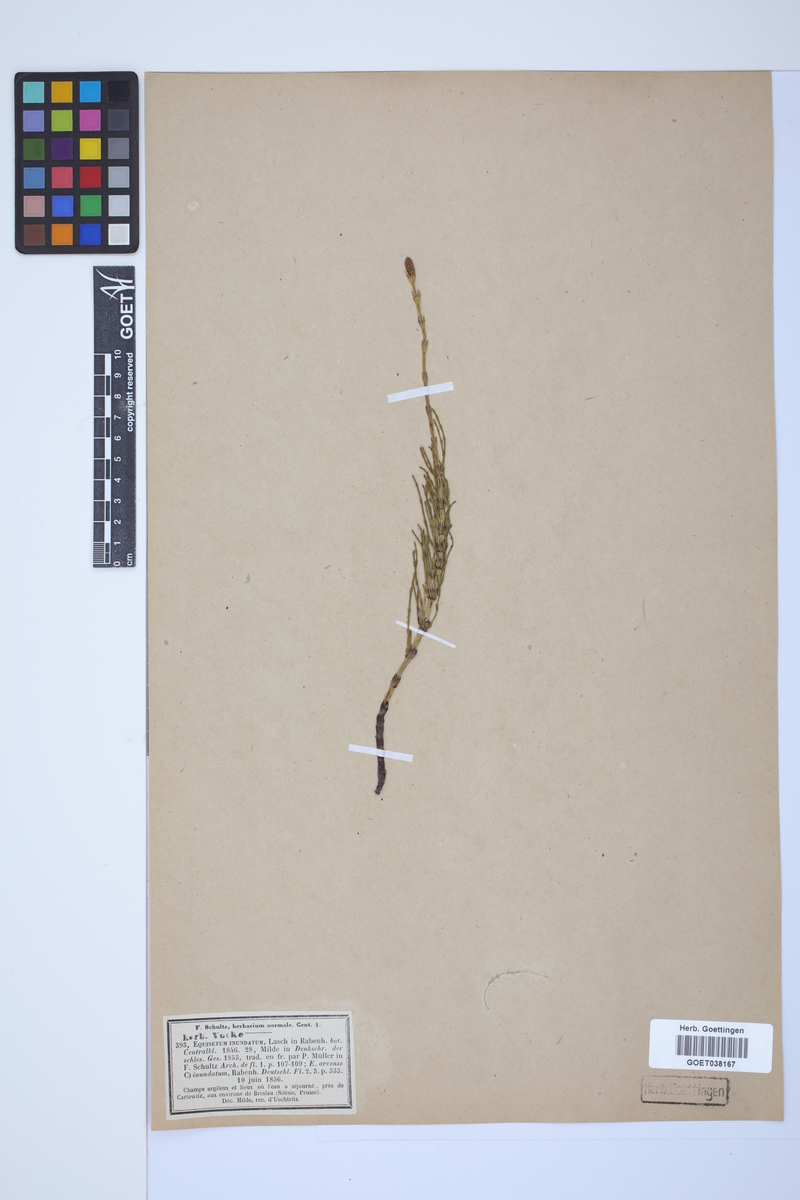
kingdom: Plantae
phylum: Tracheophyta
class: Polypodiopsida
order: Equisetales
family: Equisetaceae
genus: Equisetum
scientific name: Equisetum arvense
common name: Field horsetail
